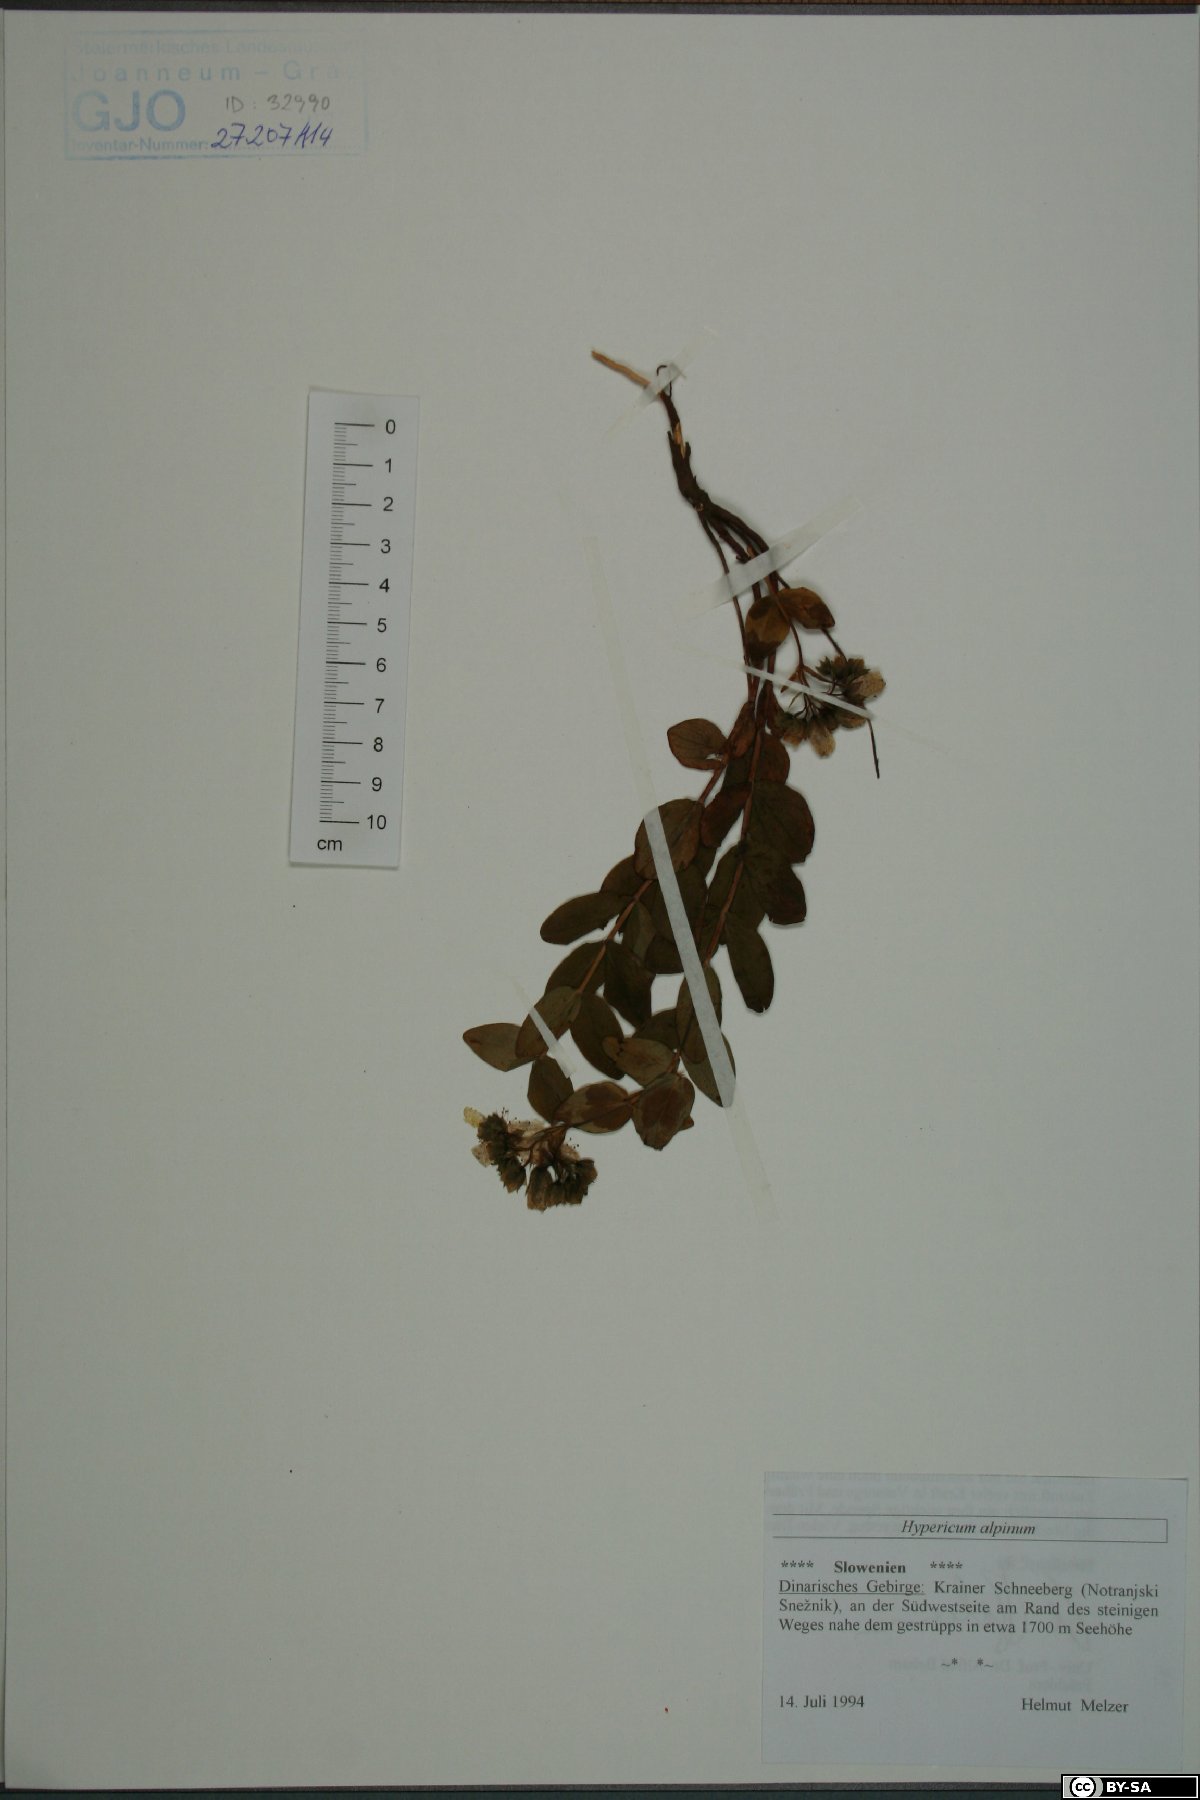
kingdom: Plantae
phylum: Tracheophyta
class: Magnoliopsida
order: Malpighiales
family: Hypericaceae
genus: Hypericum
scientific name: Hypericum richeri
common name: Alpine st john's-wort
